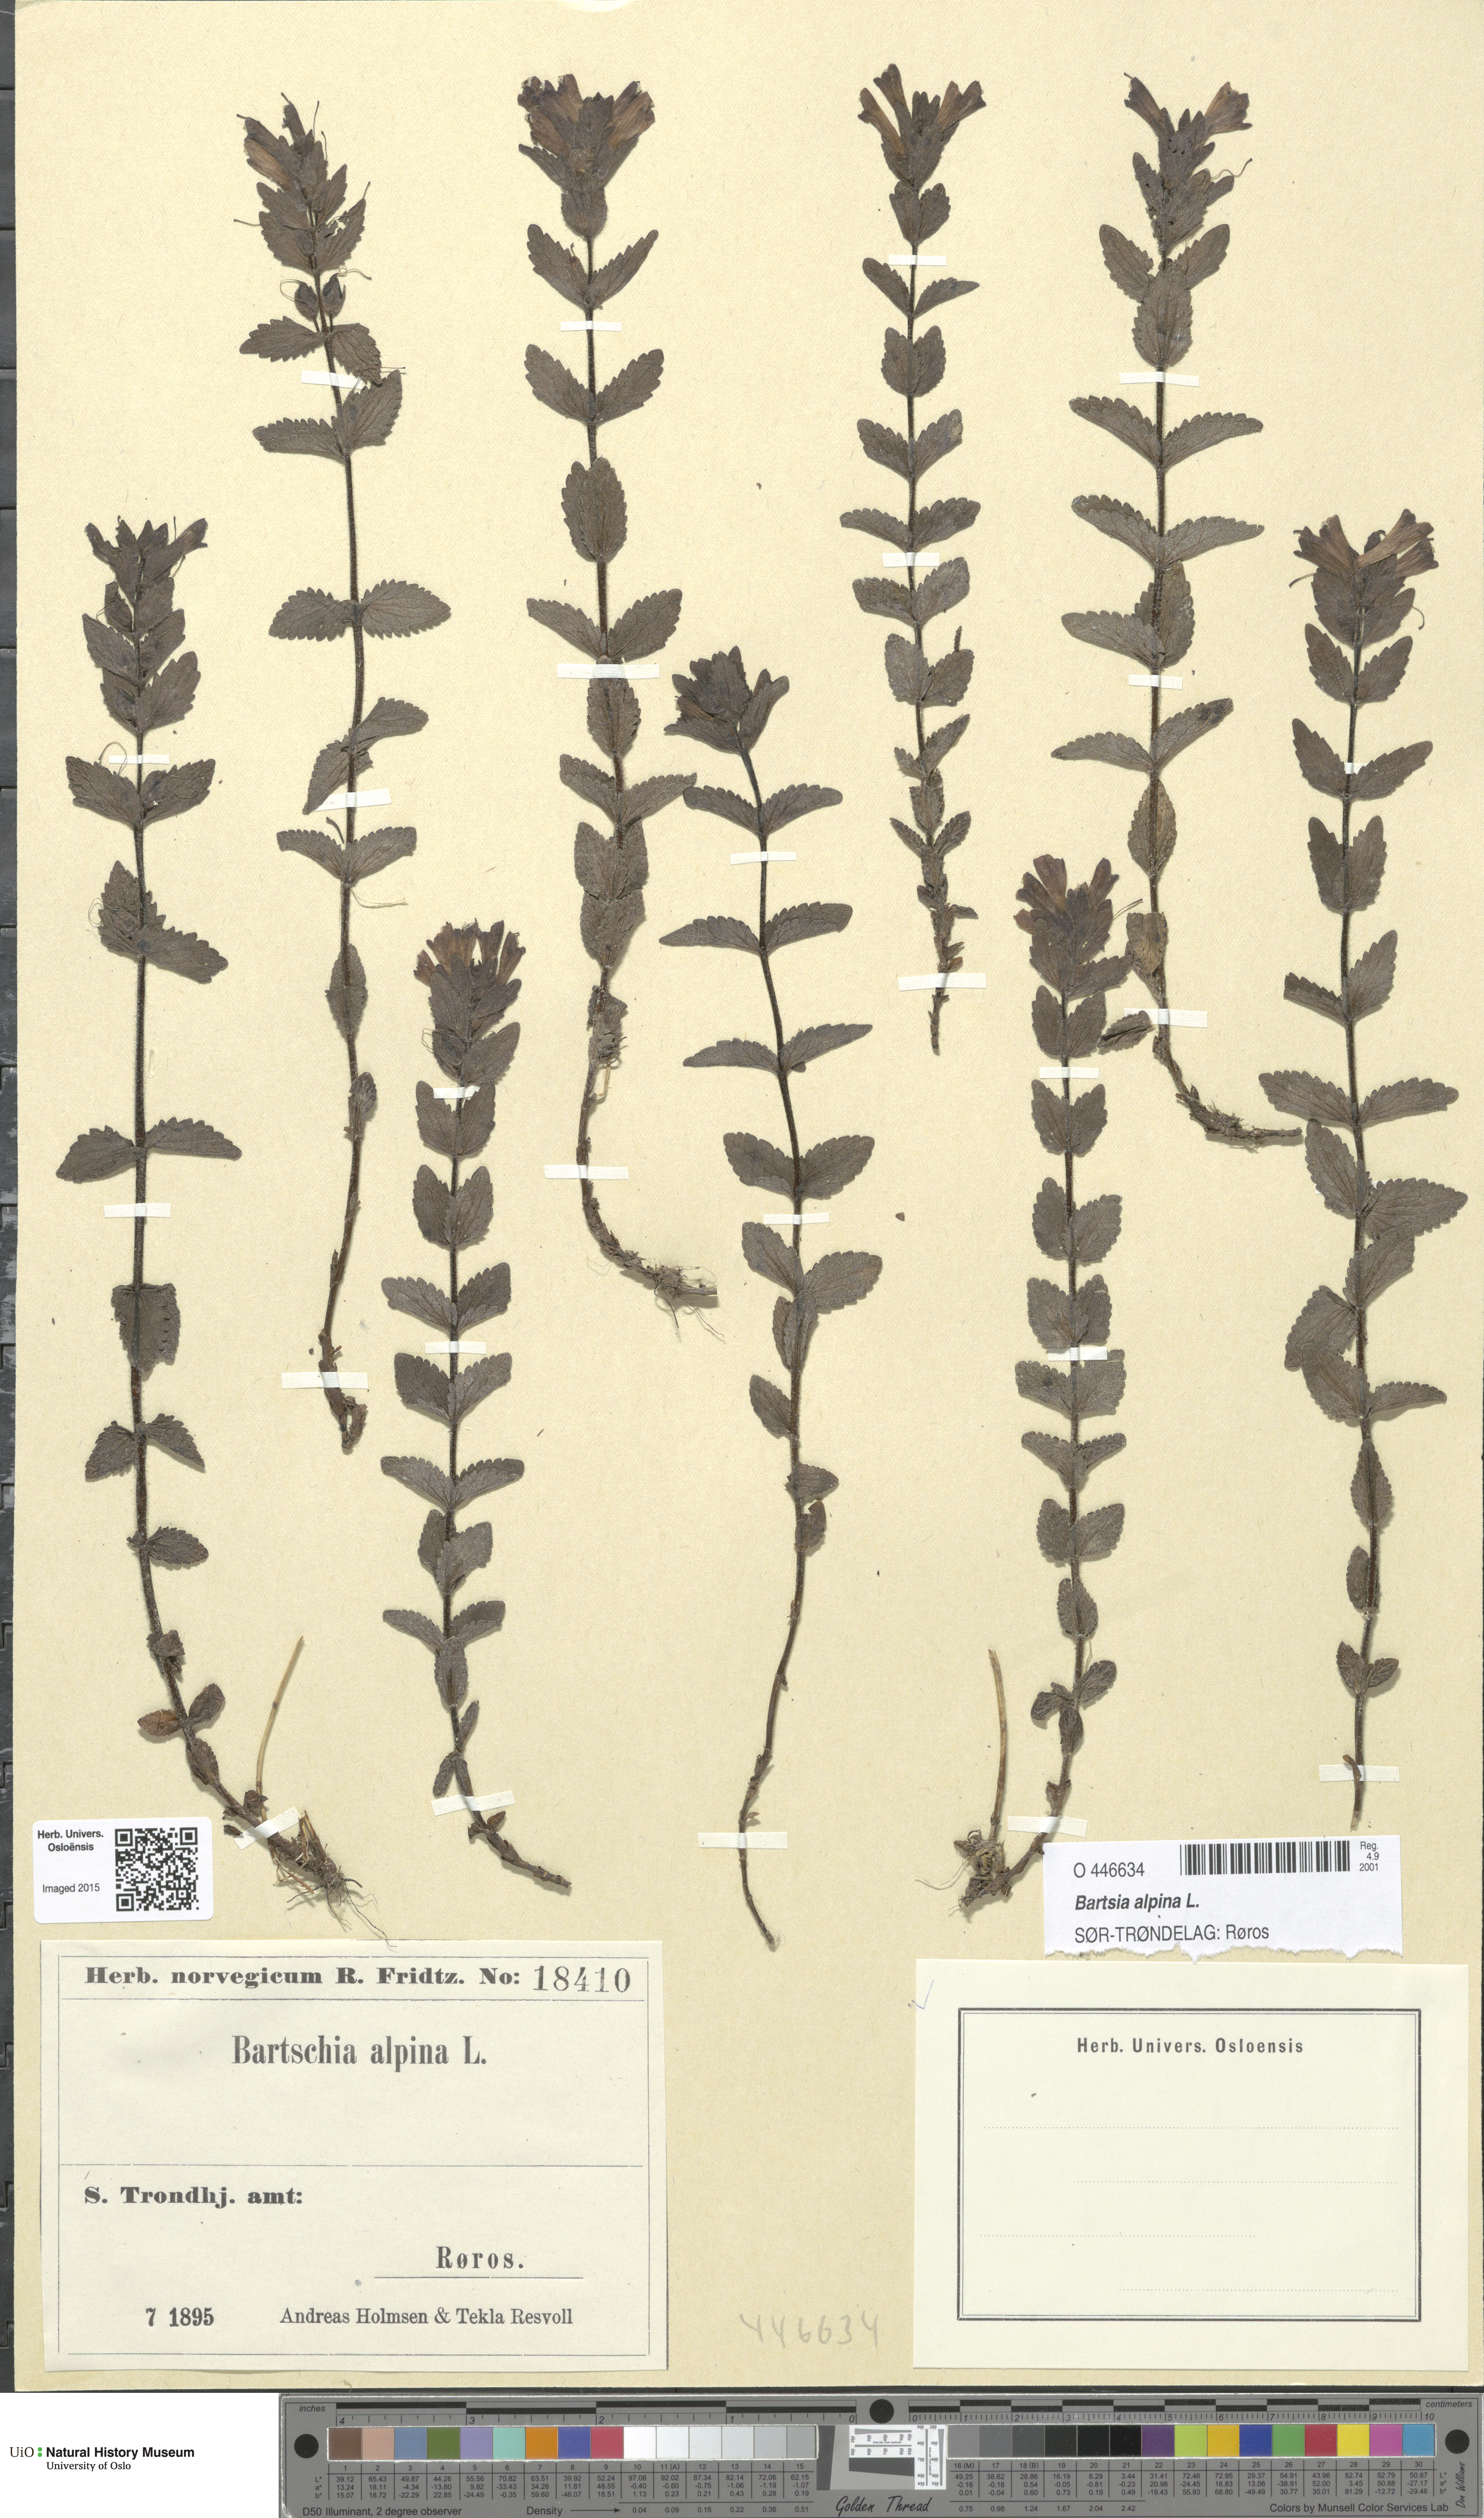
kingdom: Plantae
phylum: Tracheophyta
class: Magnoliopsida
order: Lamiales
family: Orobanchaceae
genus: Bartsia
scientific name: Bartsia alpina
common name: Alpine bartsia
